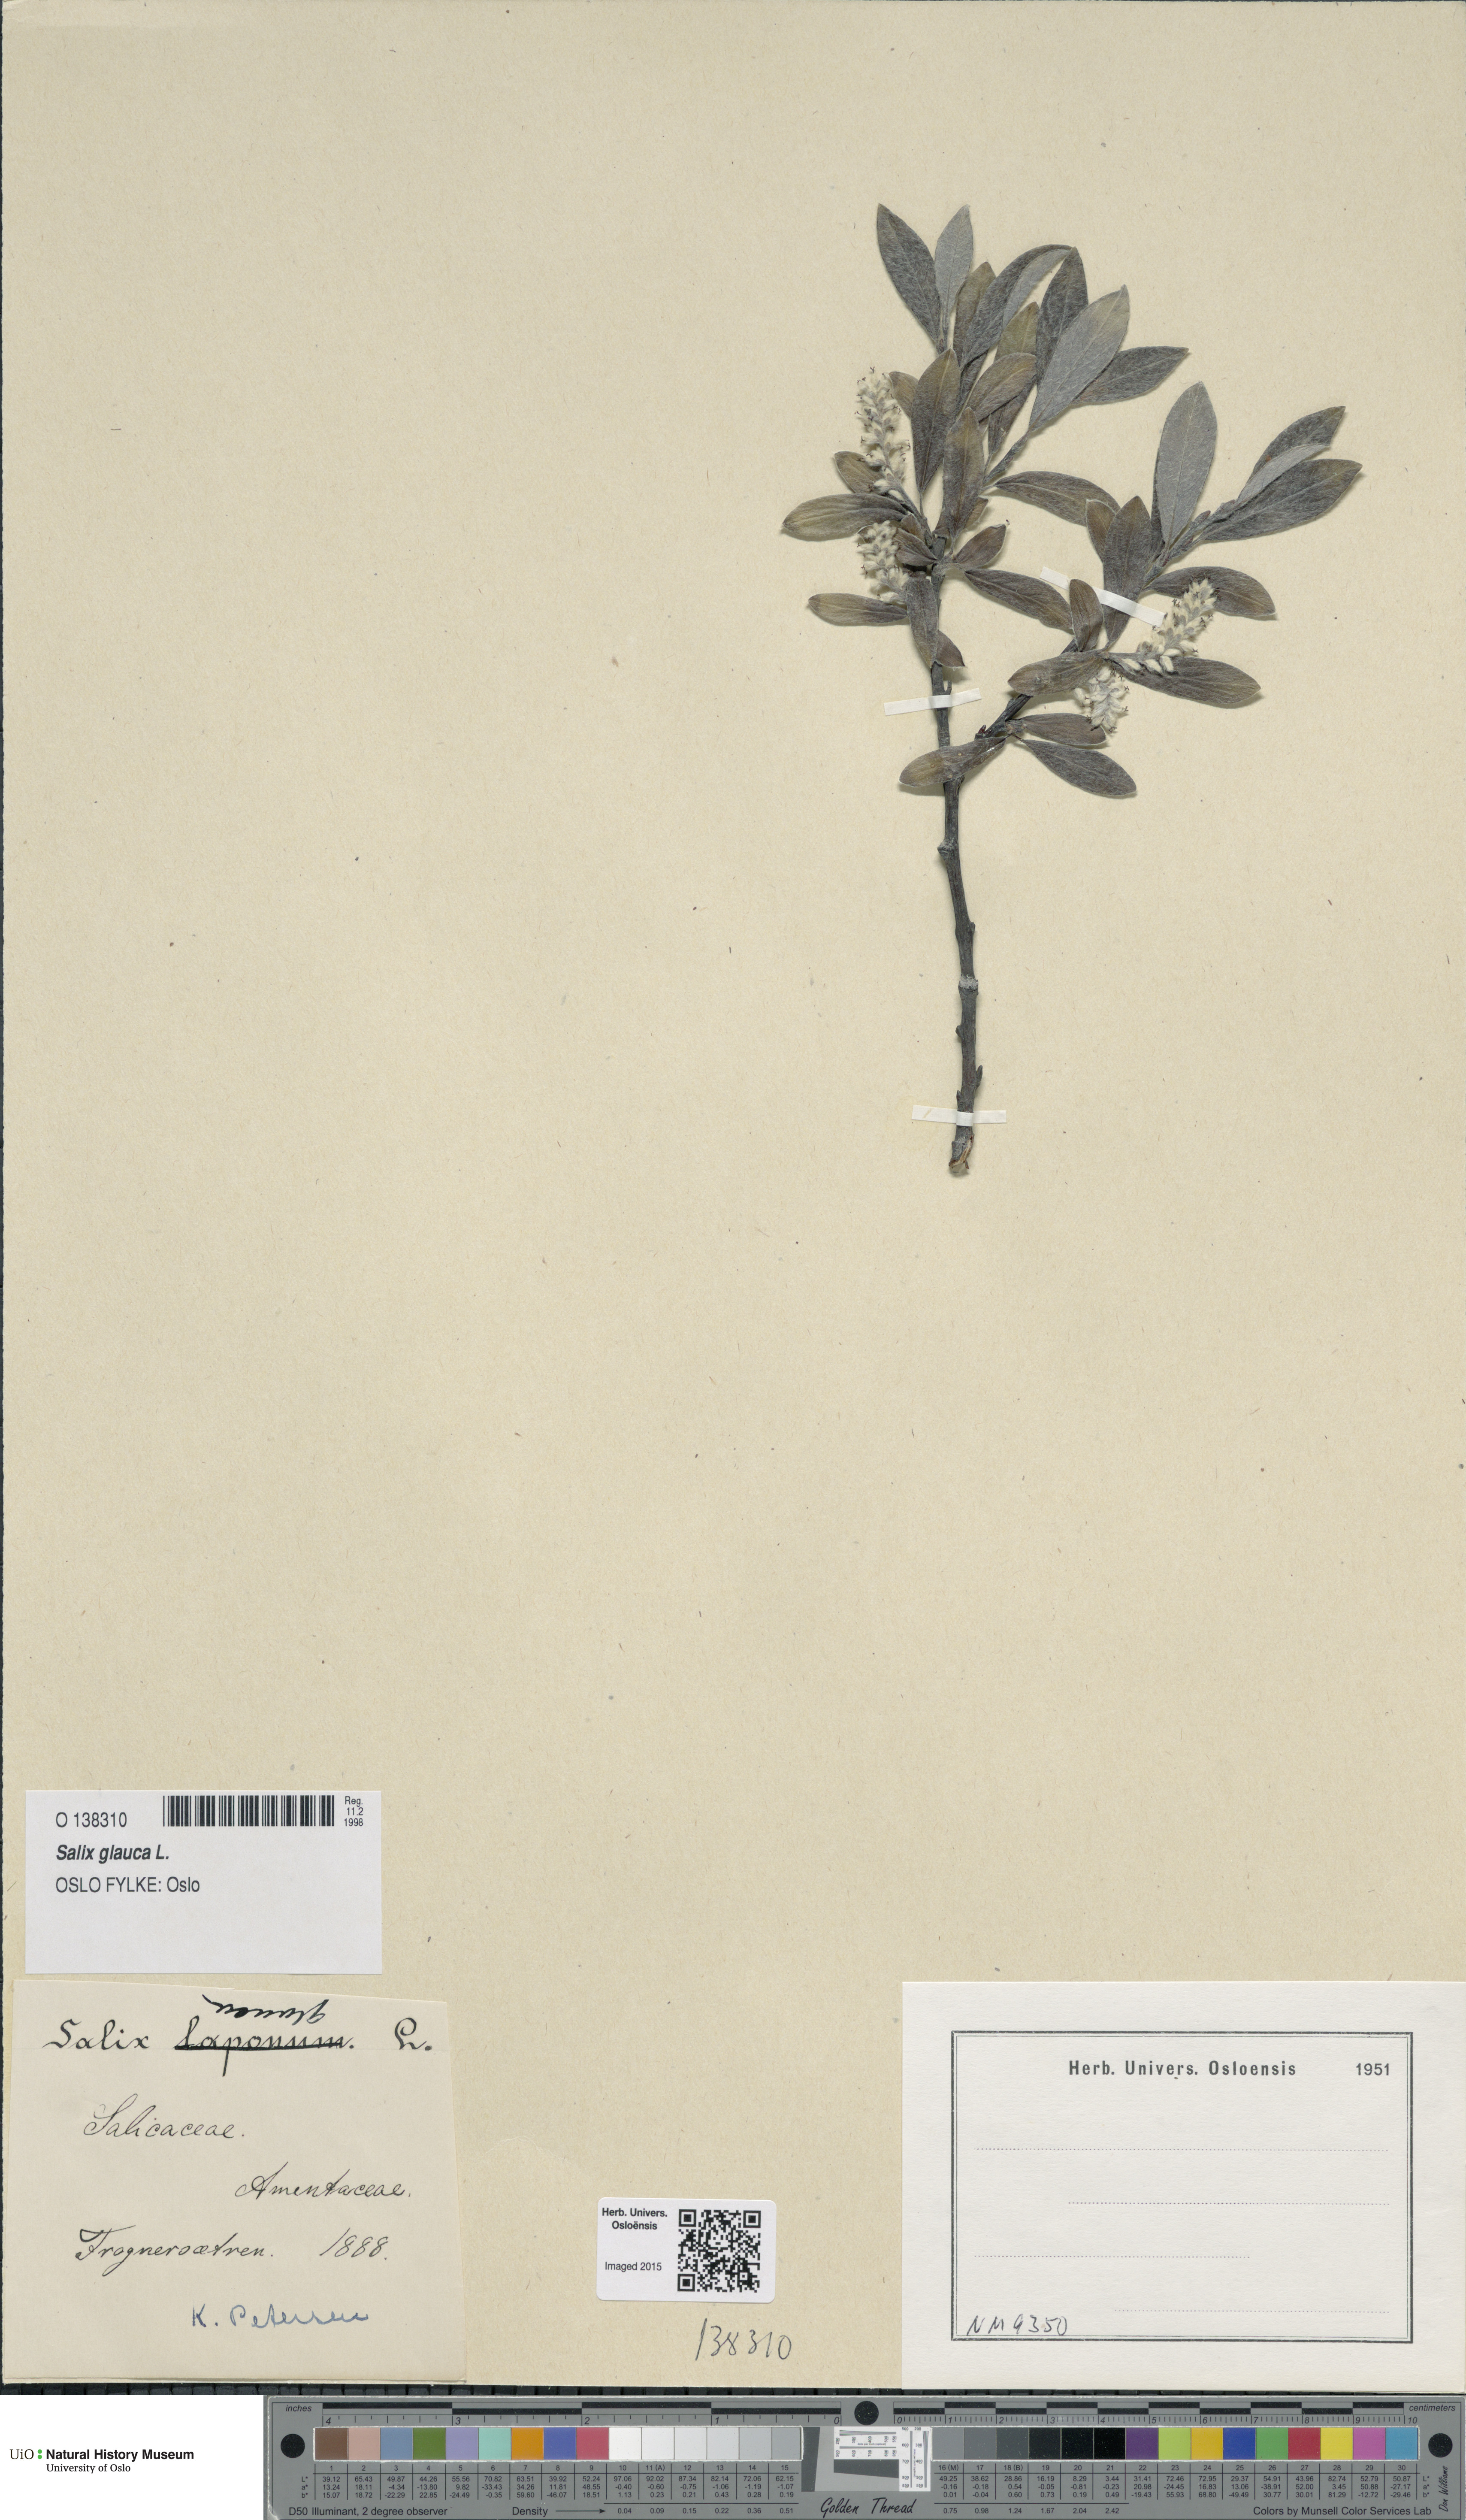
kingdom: Plantae
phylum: Tracheophyta
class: Magnoliopsida
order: Malpighiales
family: Salicaceae
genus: Salix
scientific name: Salix glauca
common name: Glaucous willow
